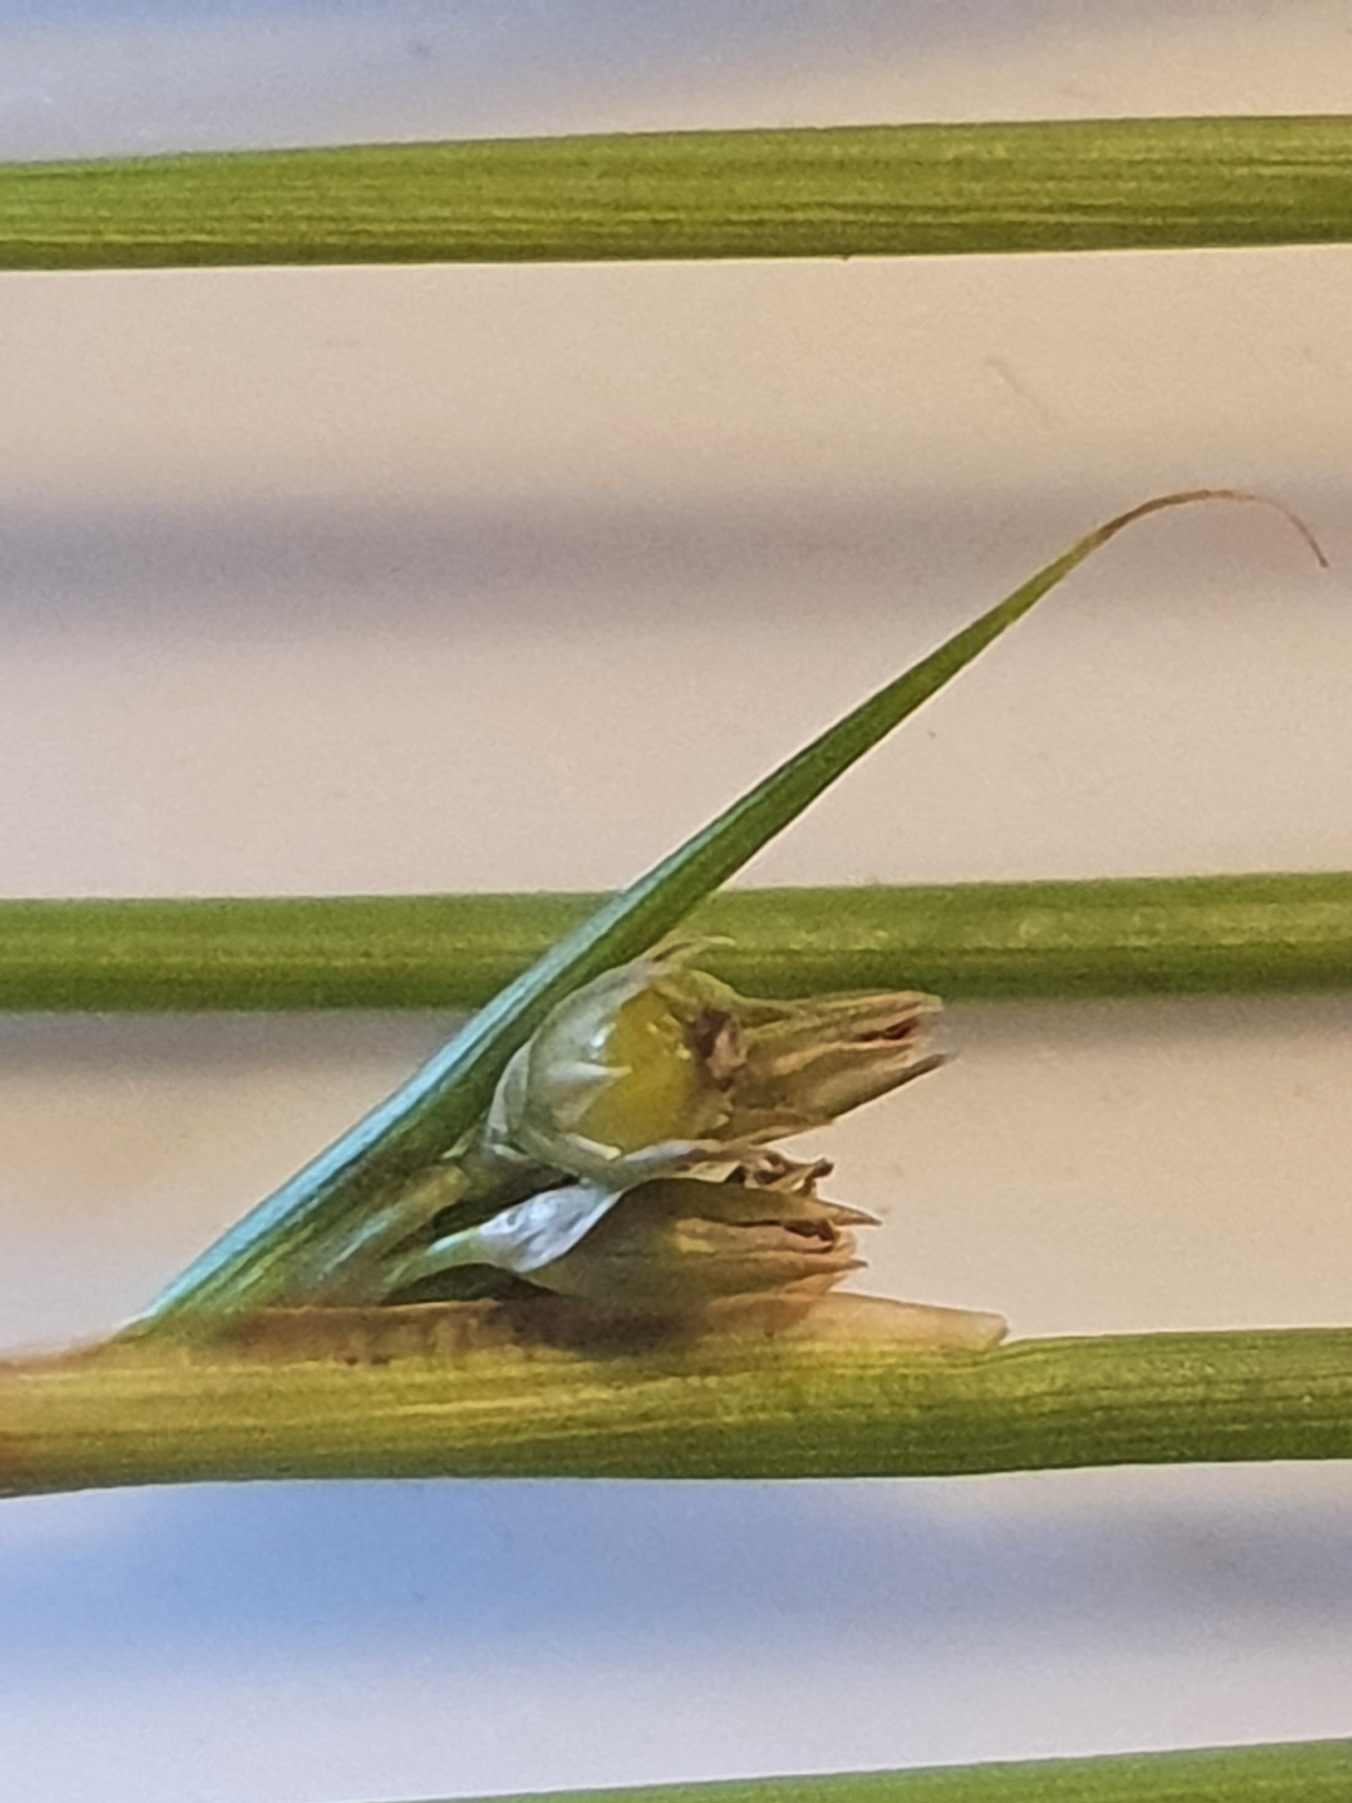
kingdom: Plantae
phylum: Tracheophyta
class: Liliopsida
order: Poales
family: Juncaceae
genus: Juncus
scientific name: Juncus filiformis
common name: Tråd-siv
